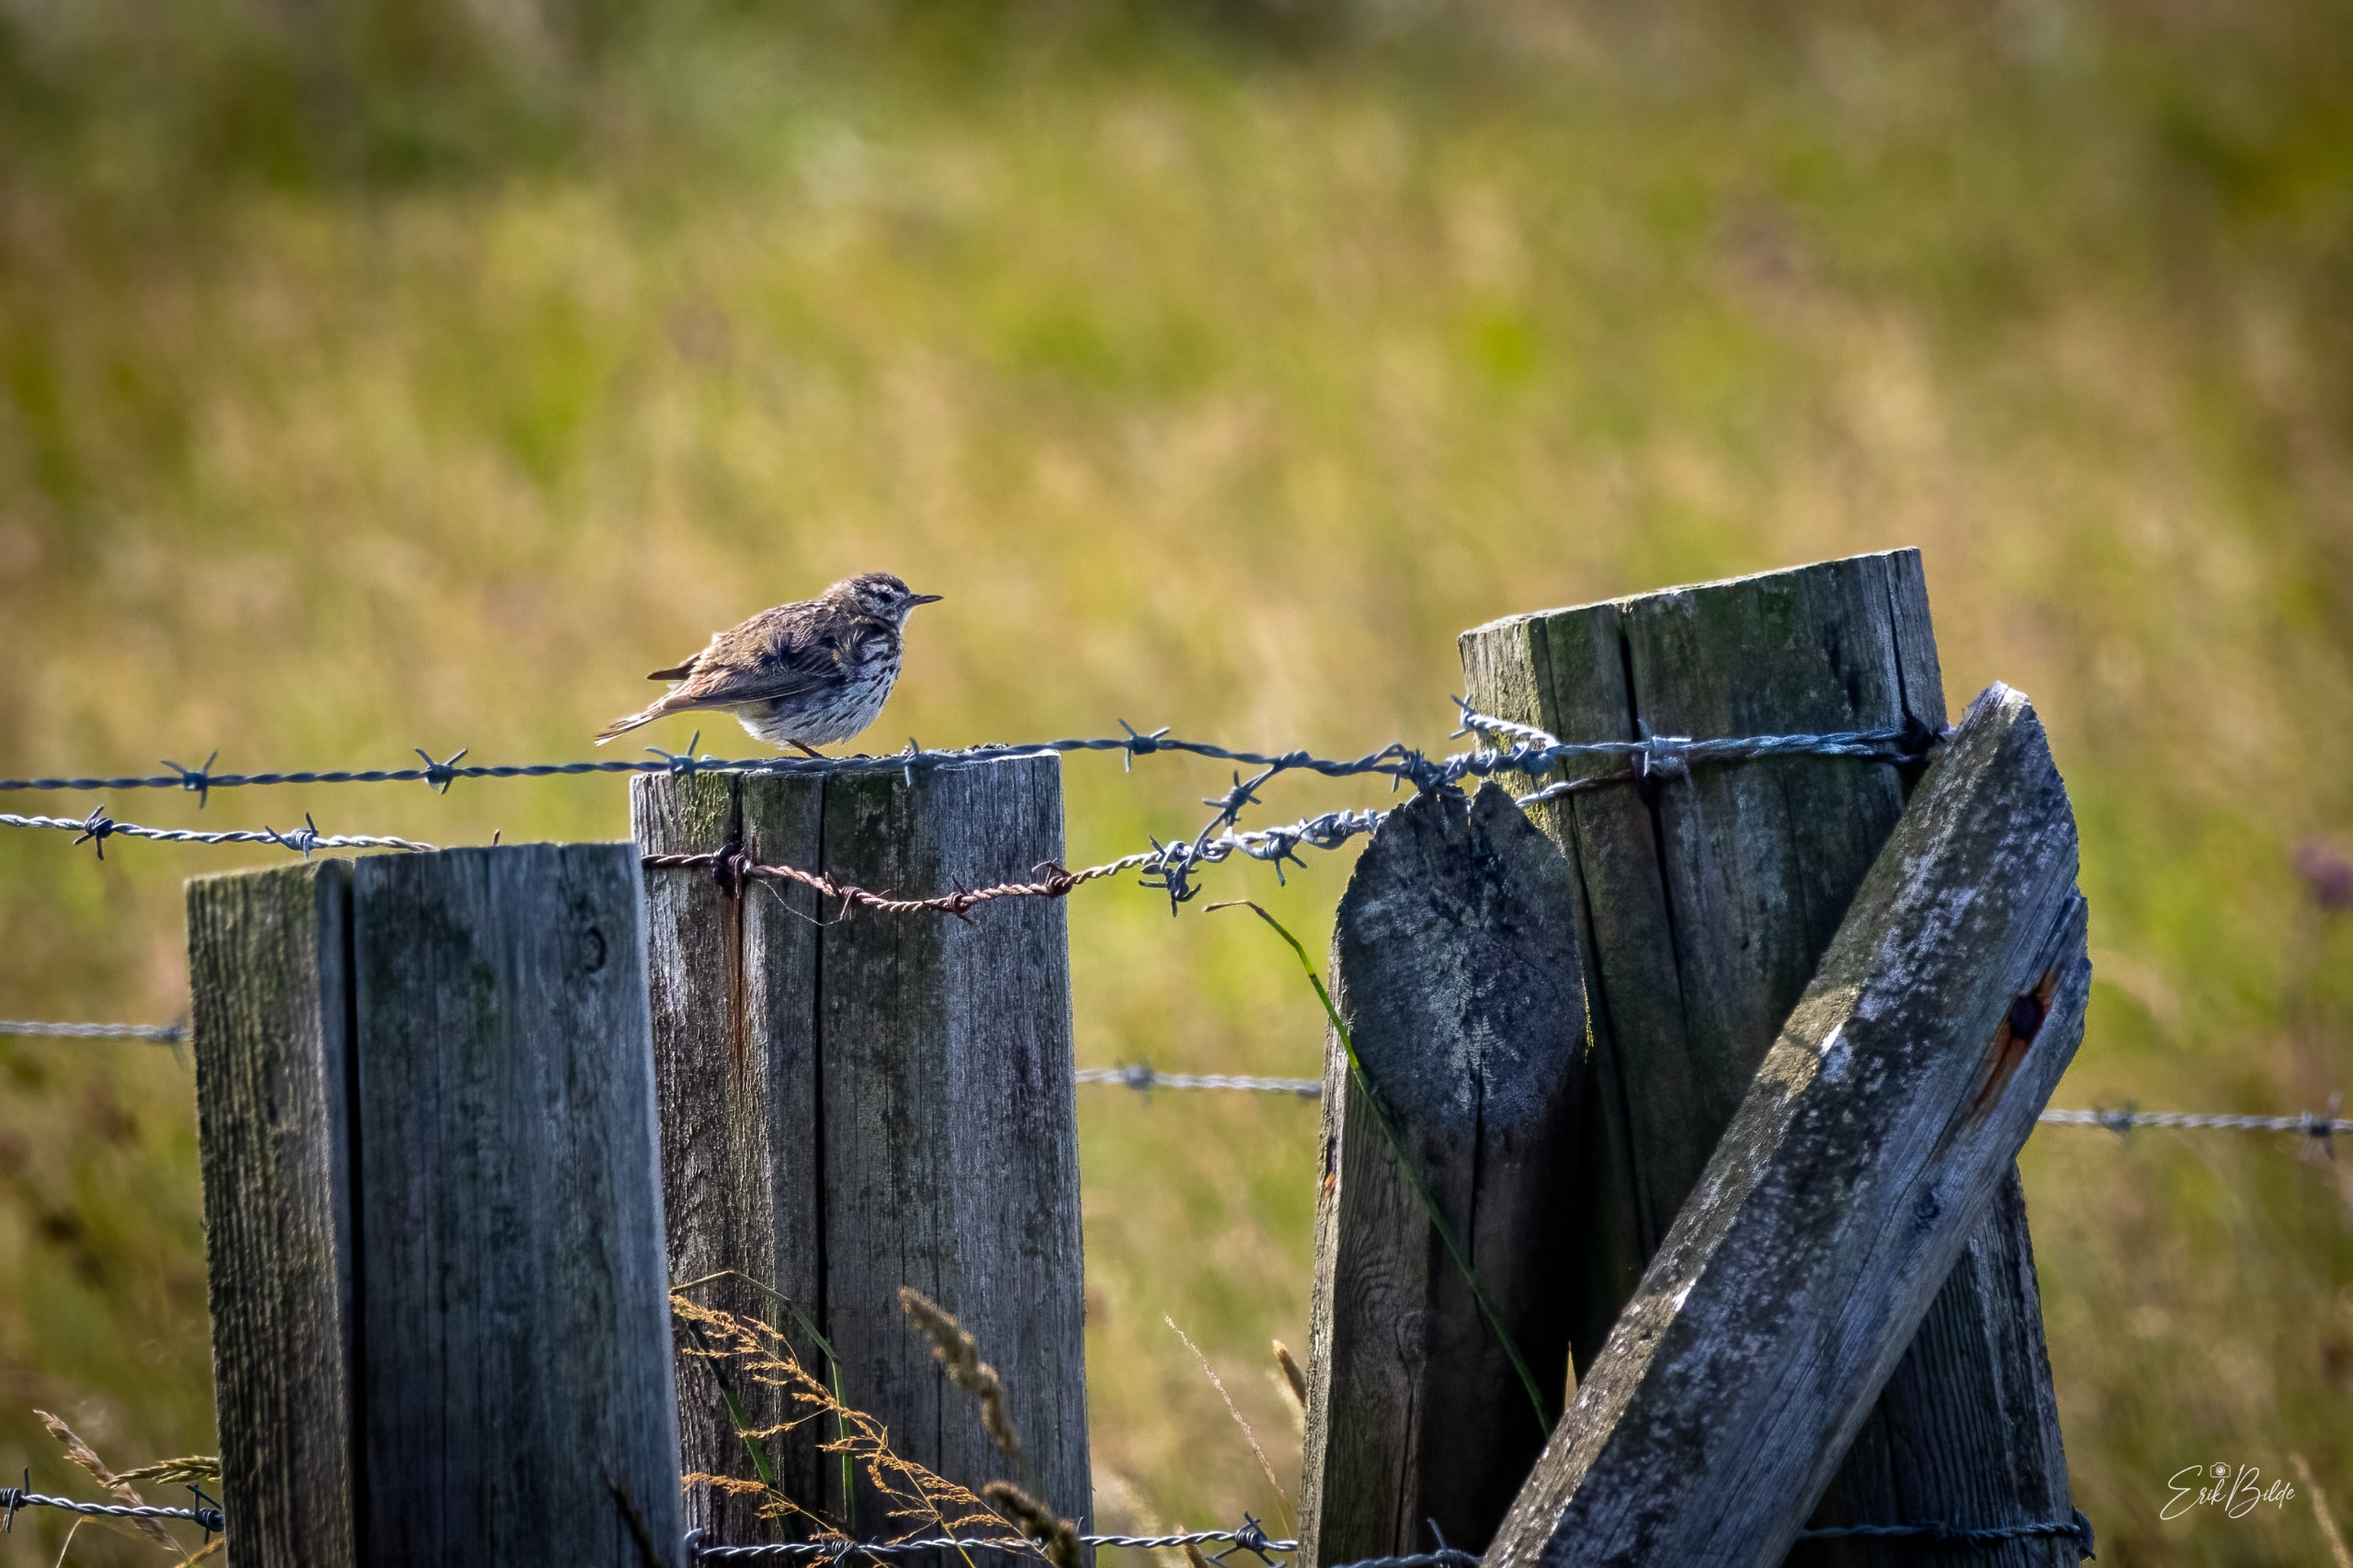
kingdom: Animalia
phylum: Chordata
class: Aves
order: Passeriformes
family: Motacillidae
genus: Anthus
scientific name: Anthus pratensis
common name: Engpiber
